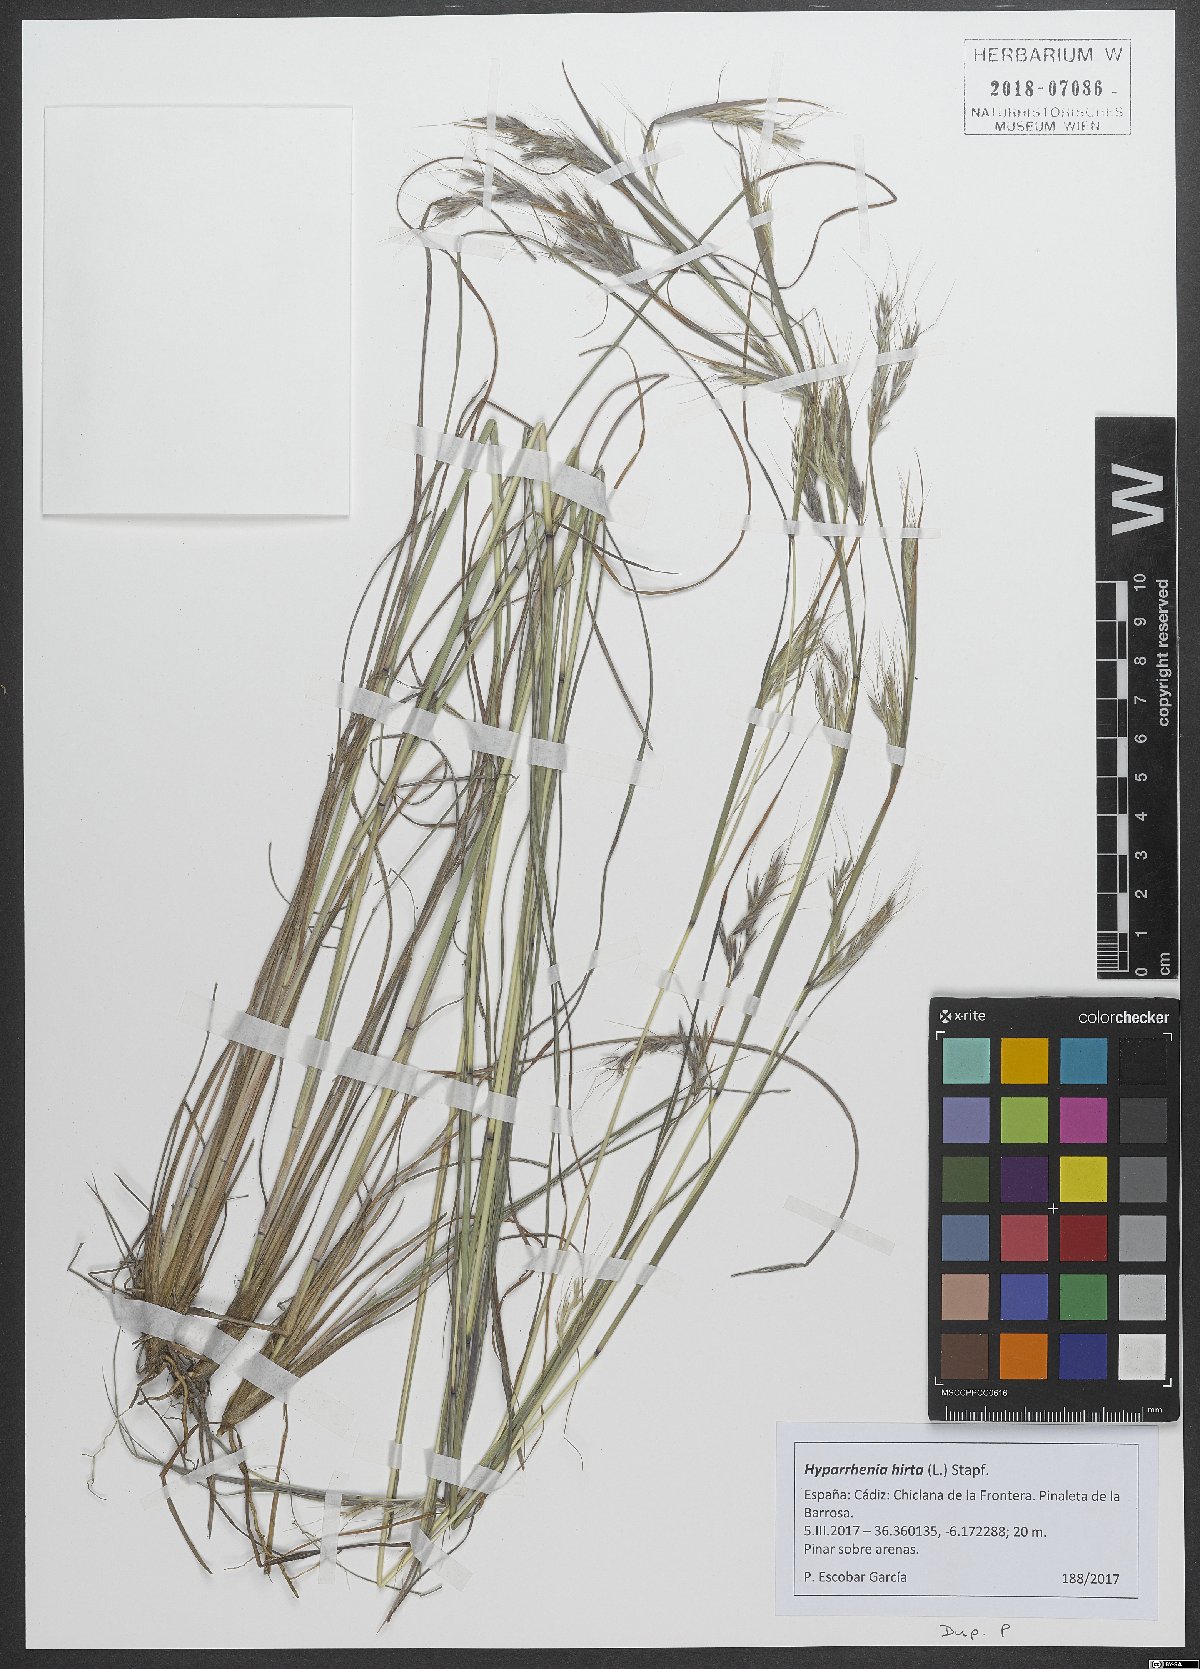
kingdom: Plantae
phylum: Tracheophyta
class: Liliopsida
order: Poales
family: Poaceae
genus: Hyparrhenia
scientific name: Hyparrhenia hirta
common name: Thatching grass
